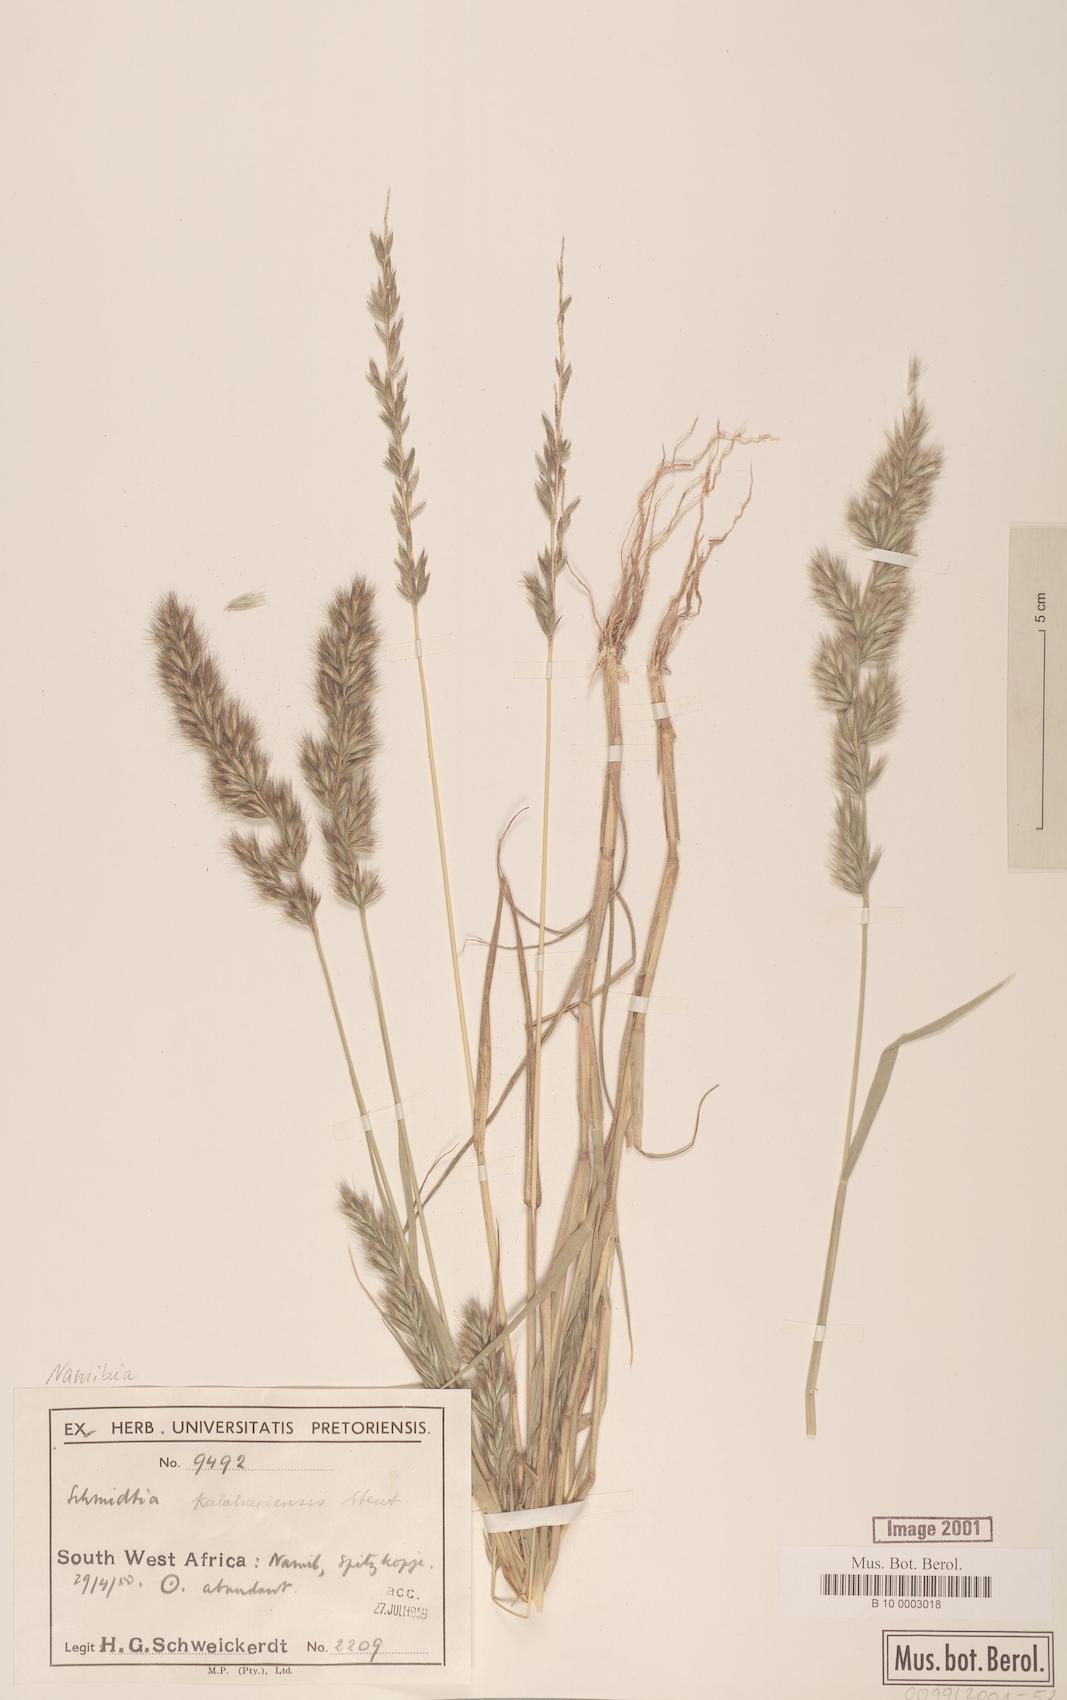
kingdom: Plantae
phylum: Tracheophyta
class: Liliopsida
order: Poales
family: Poaceae
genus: Schmidtia
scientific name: Schmidtia kalahariensis
